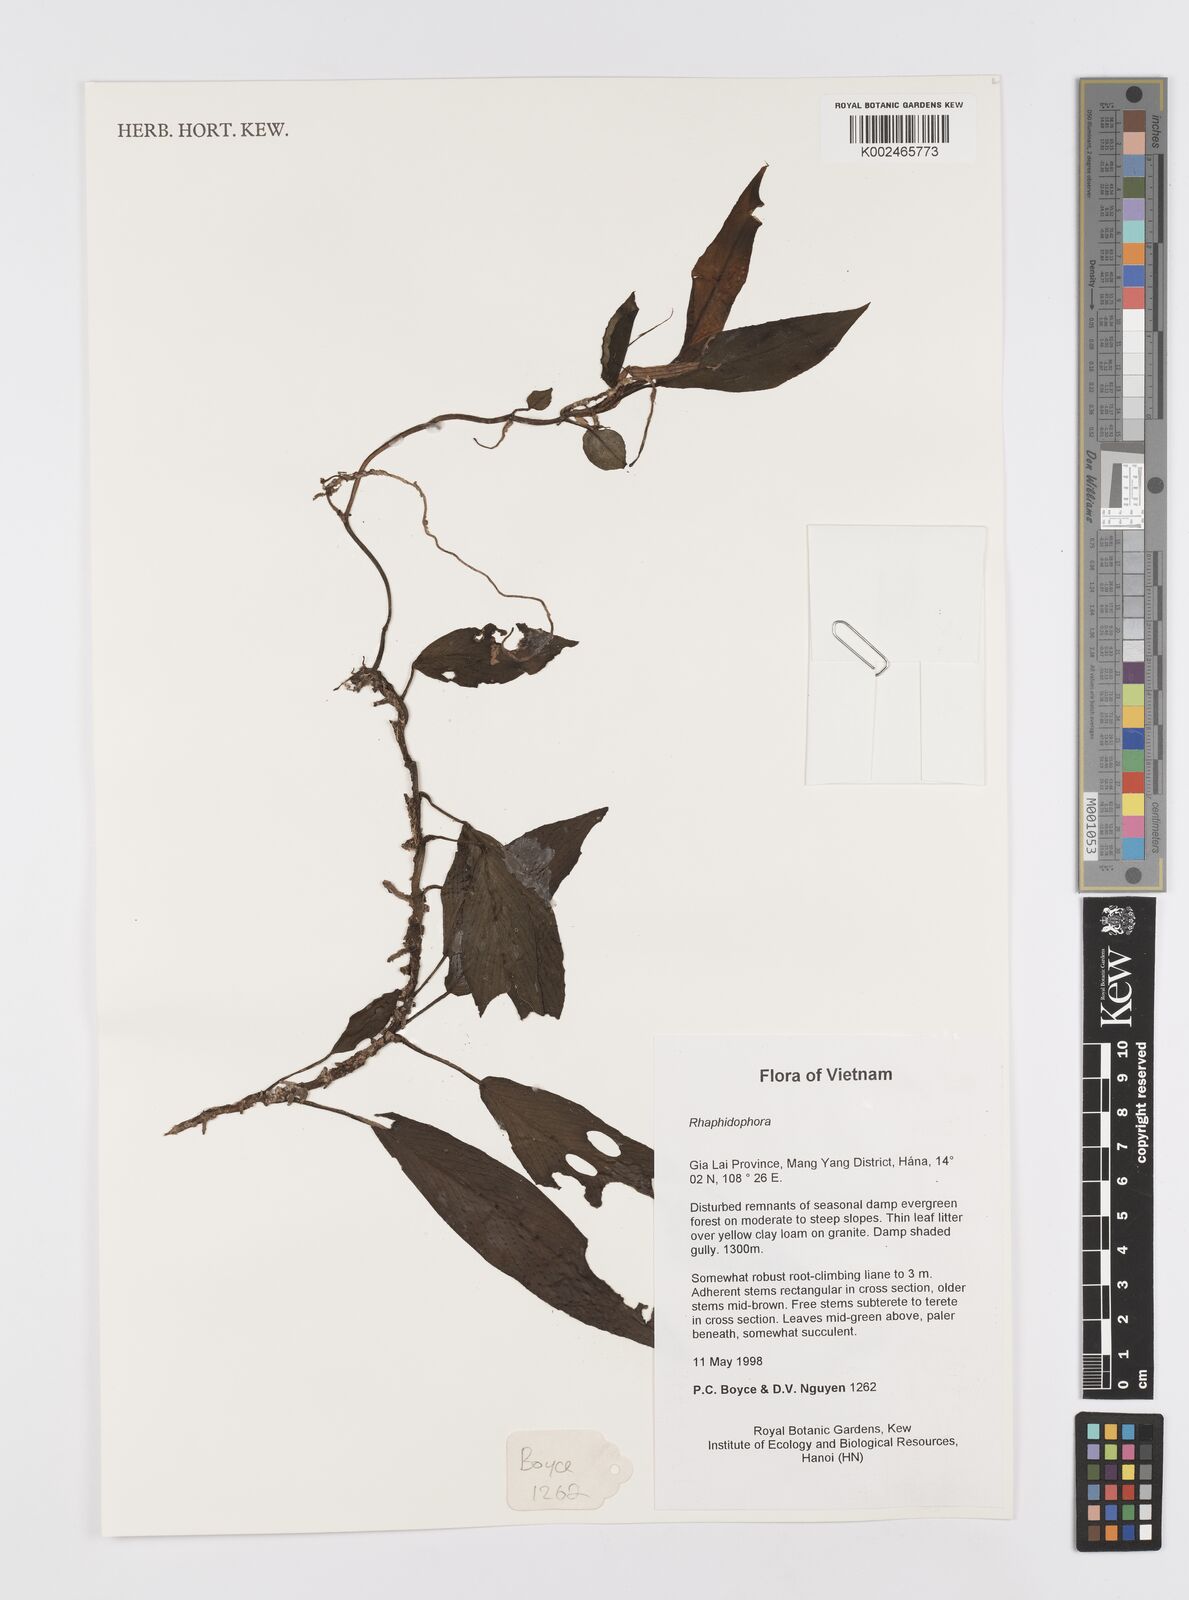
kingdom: Plantae
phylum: Tracheophyta
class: Liliopsida
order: Alismatales
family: Araceae
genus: Rhaphidophora
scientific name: Rhaphidophora
